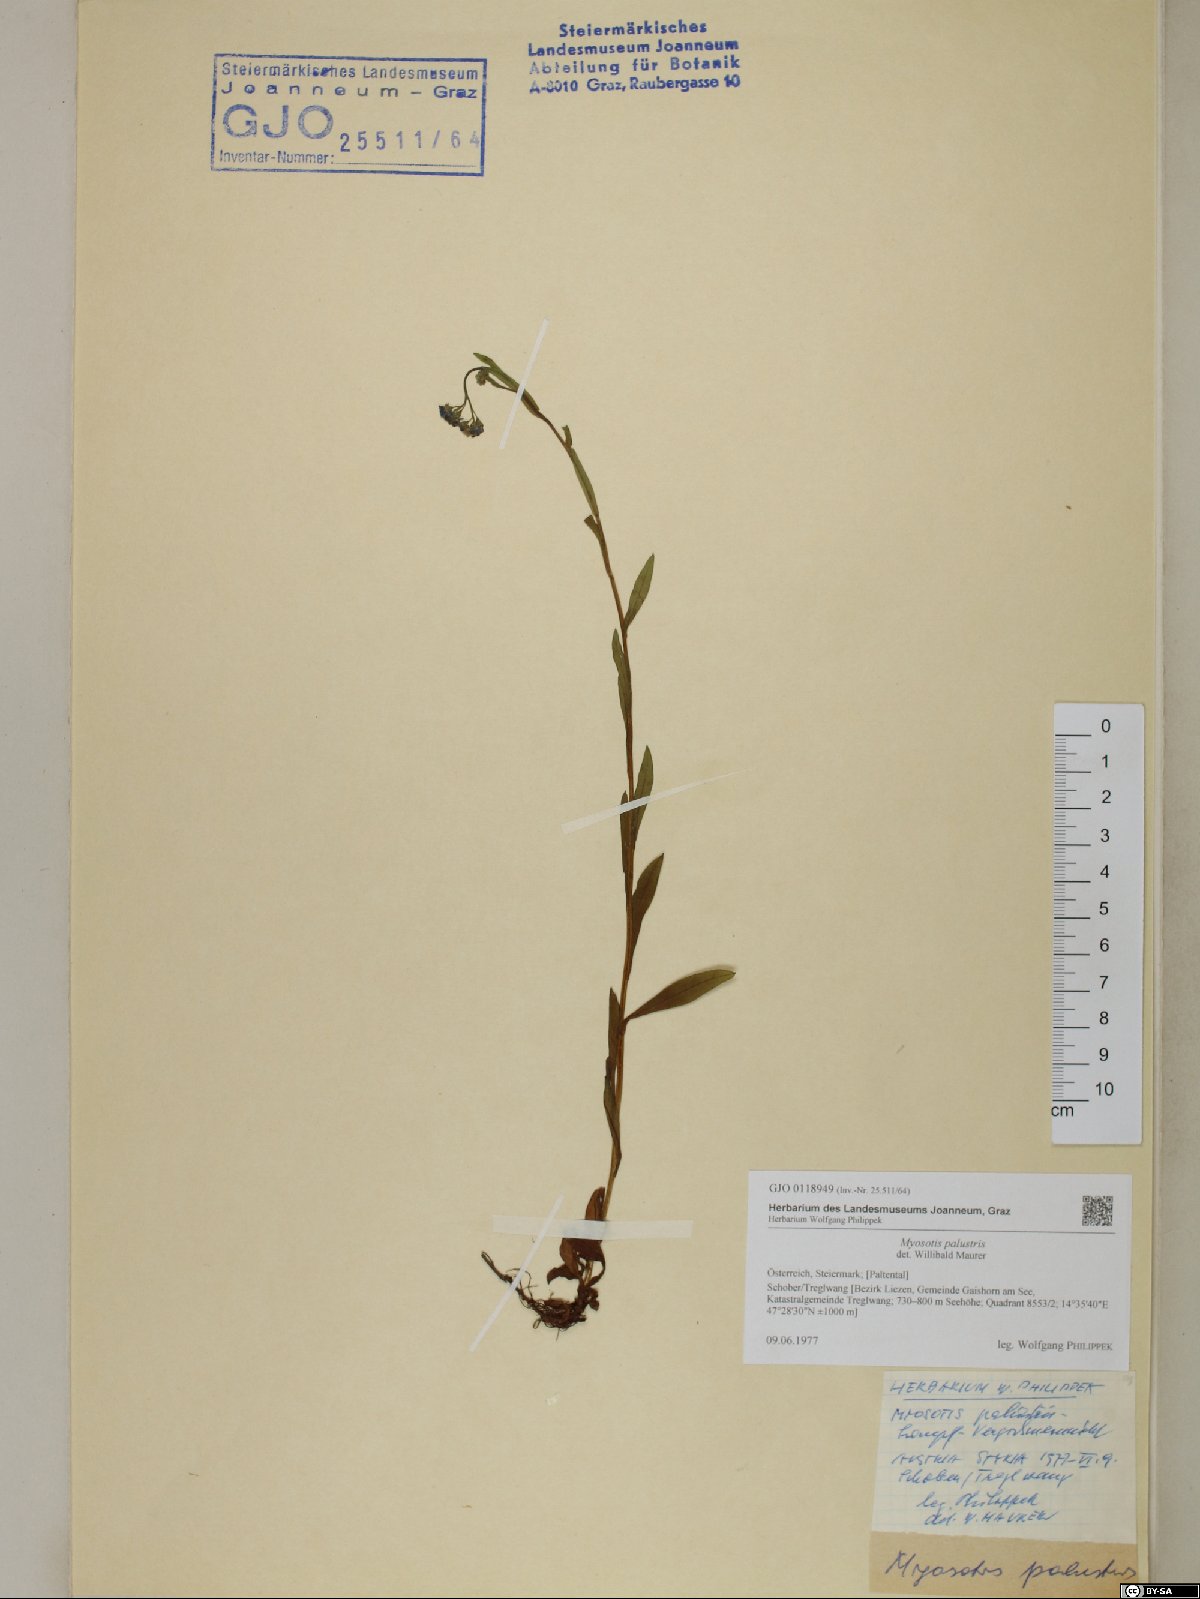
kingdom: Plantae
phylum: Tracheophyta
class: Magnoliopsida
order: Boraginales
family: Boraginaceae
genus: Myosotis
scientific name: Myosotis scorpioides
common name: Water forget-me-not
